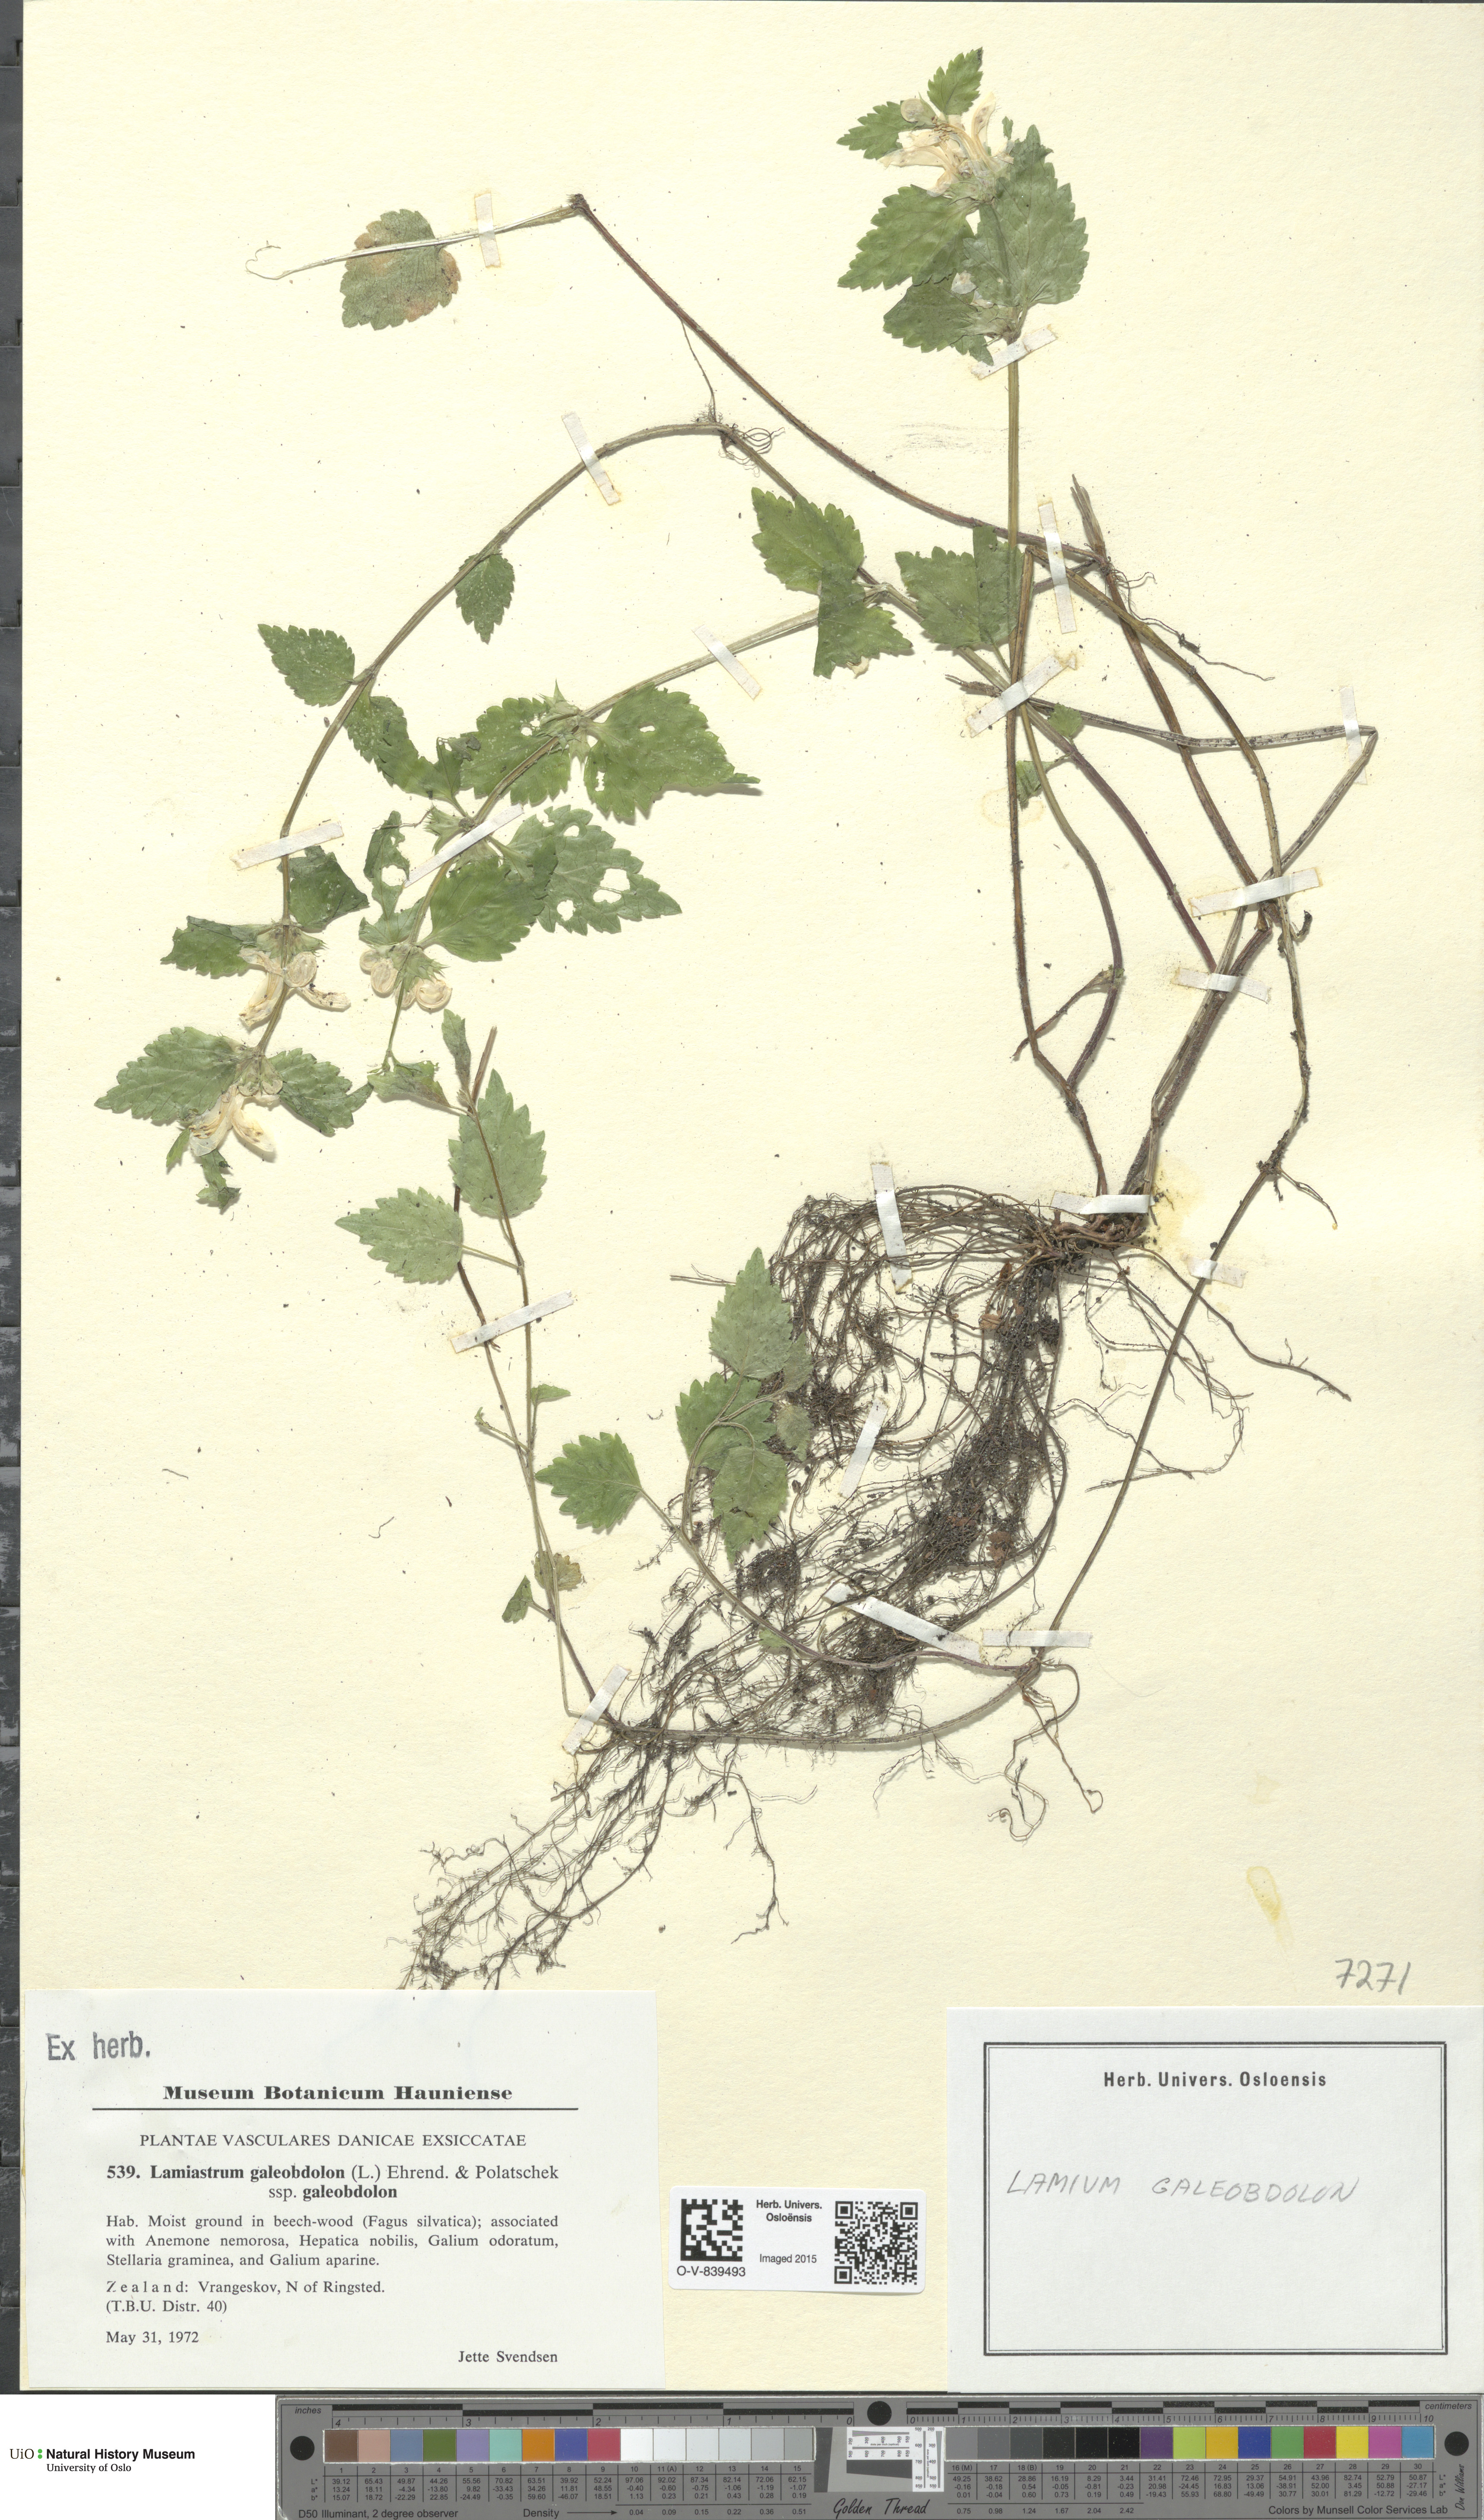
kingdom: Plantae
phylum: Tracheophyta
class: Magnoliopsida
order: Lamiales
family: Lamiaceae
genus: Lamium
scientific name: Lamium galeobdolon
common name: Yellow archangel
